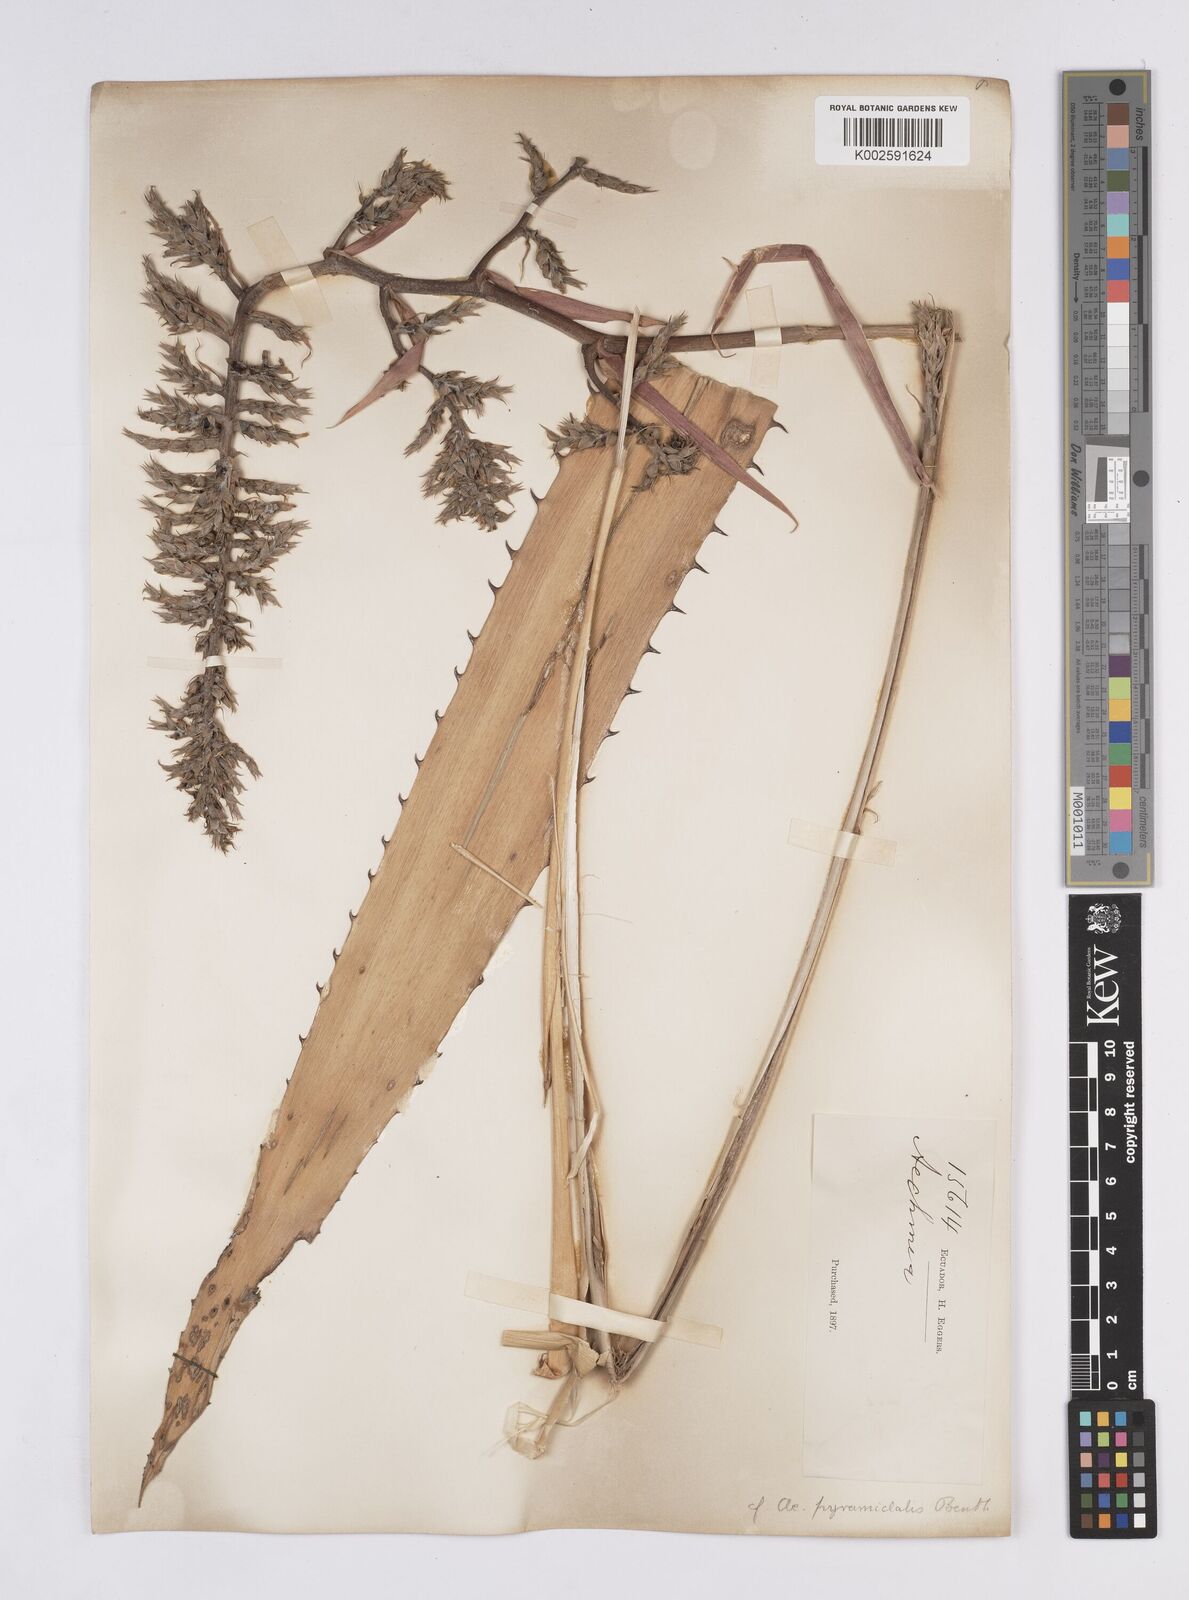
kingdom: Plantae
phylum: Tracheophyta
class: Liliopsida
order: Poales
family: Bromeliaceae
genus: Aechmea
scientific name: Aechmea pyramidalis
